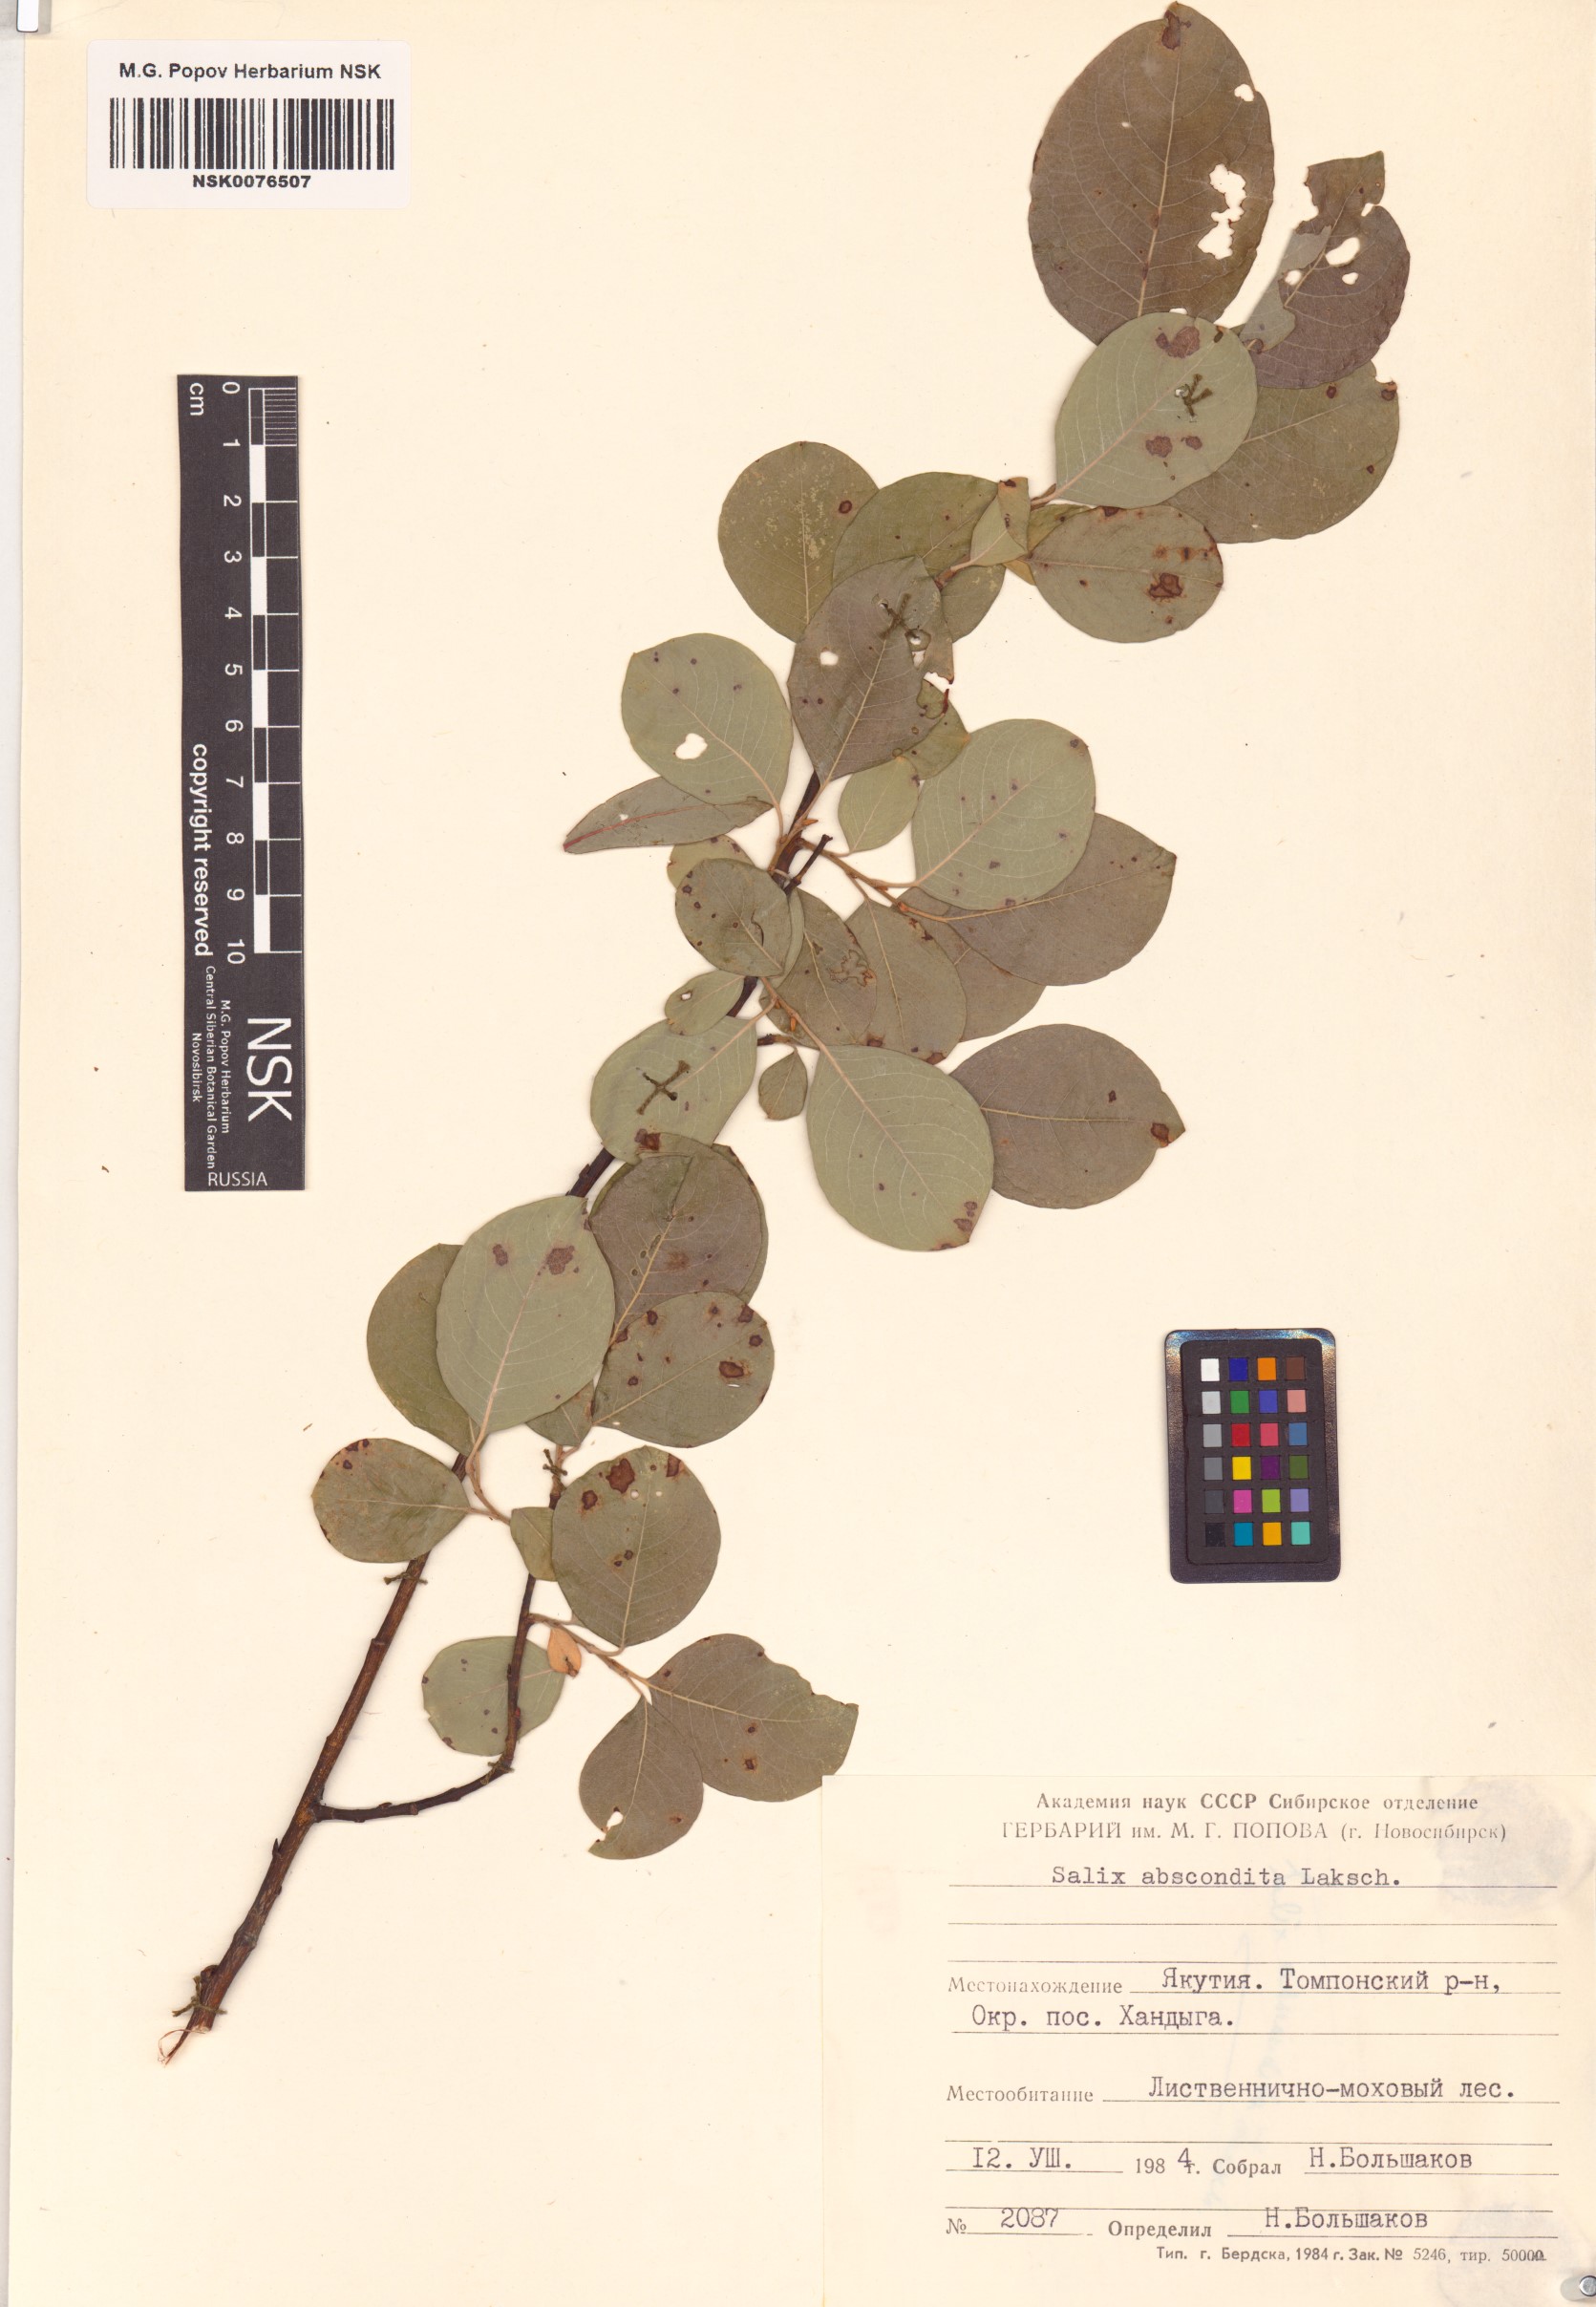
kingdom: Plantae
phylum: Tracheophyta
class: Magnoliopsida
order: Malpighiales
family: Salicaceae
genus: Salix
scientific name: Salix abscondita
